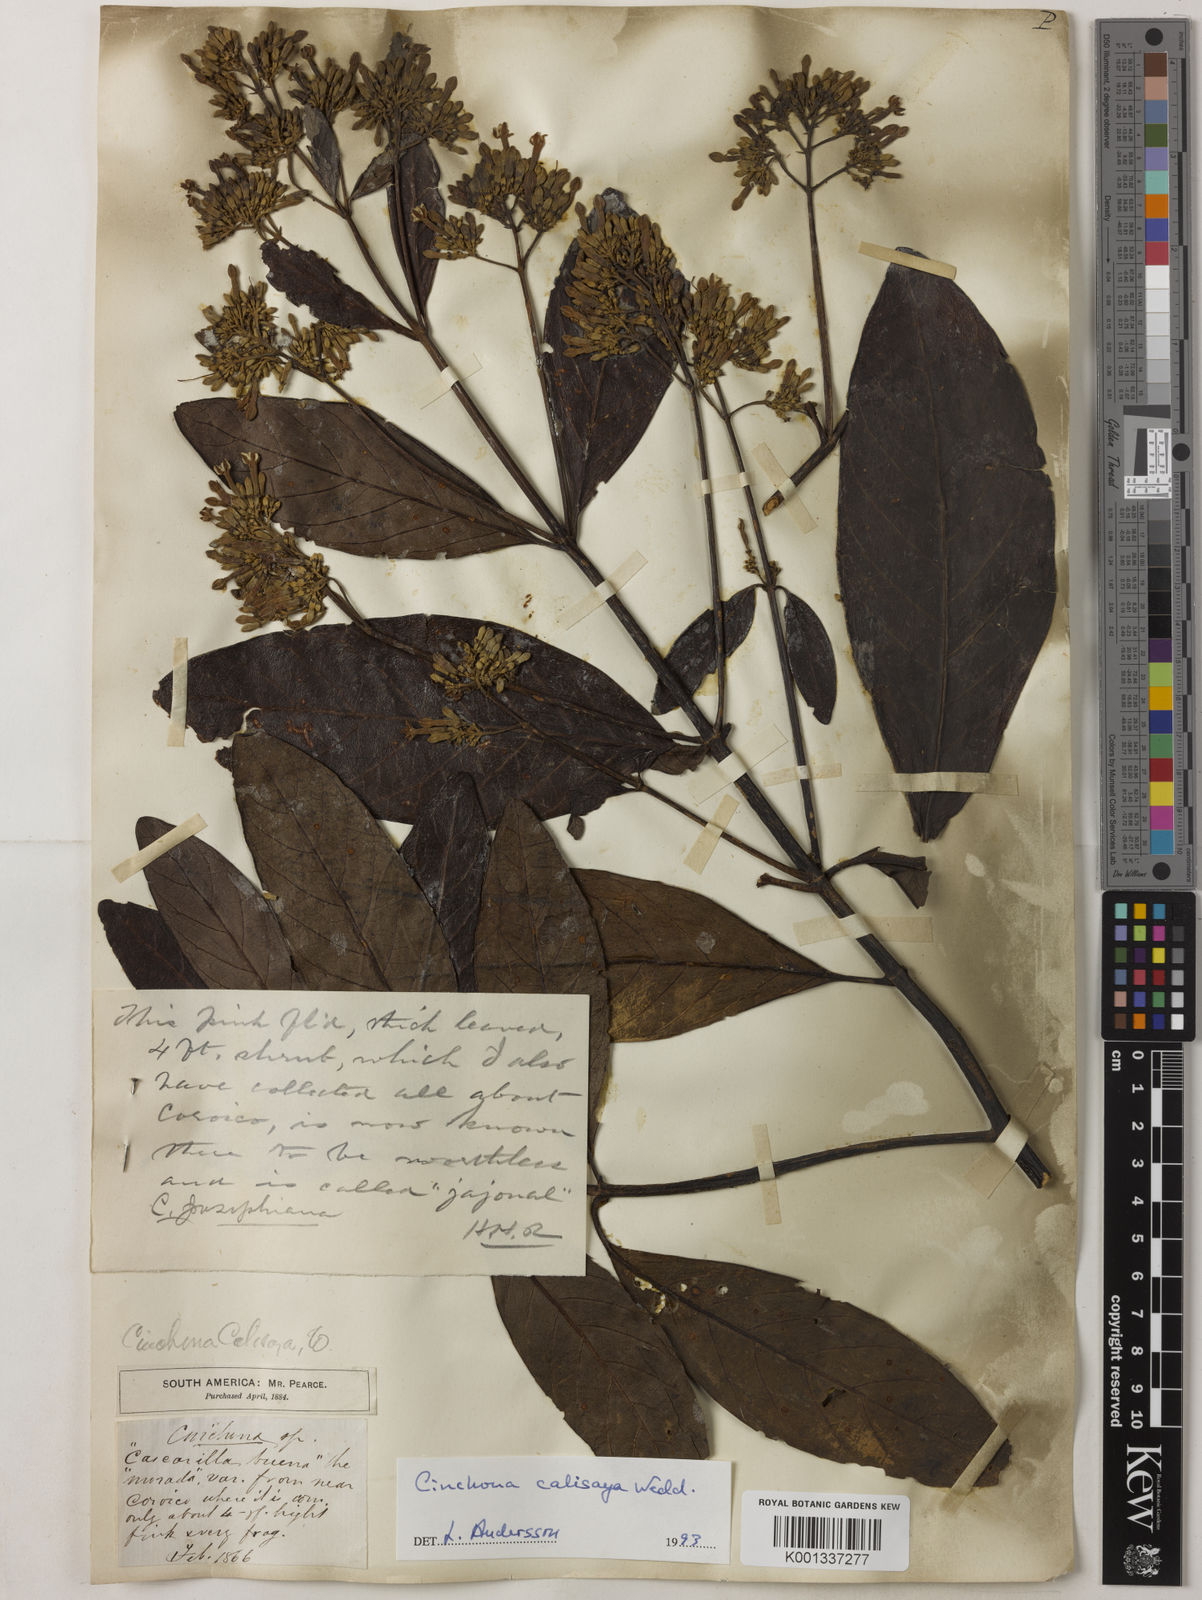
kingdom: Plantae
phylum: Tracheophyta
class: Magnoliopsida
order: Gentianales
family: Rubiaceae
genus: Cinchona
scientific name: Cinchona calisaya
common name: Ledgerbark
